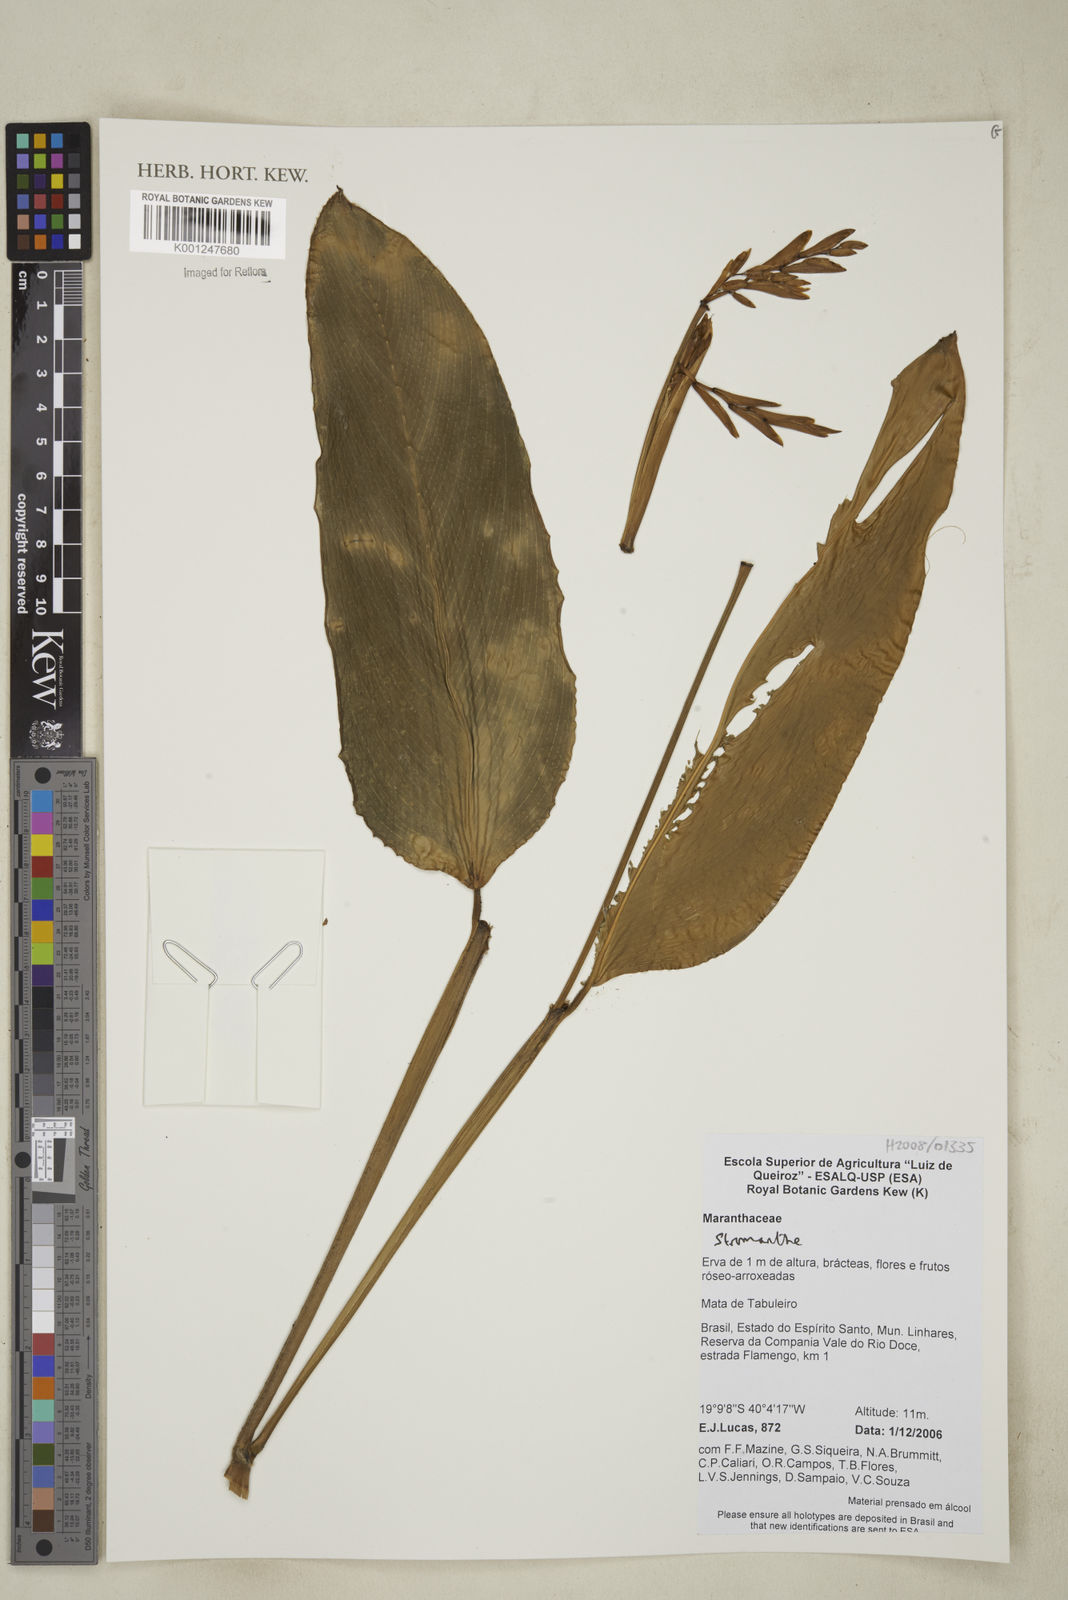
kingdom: Plantae
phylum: Tracheophyta
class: Liliopsida
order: Zingiberales
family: Marantaceae
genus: Stromanthe
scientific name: Stromanthe
